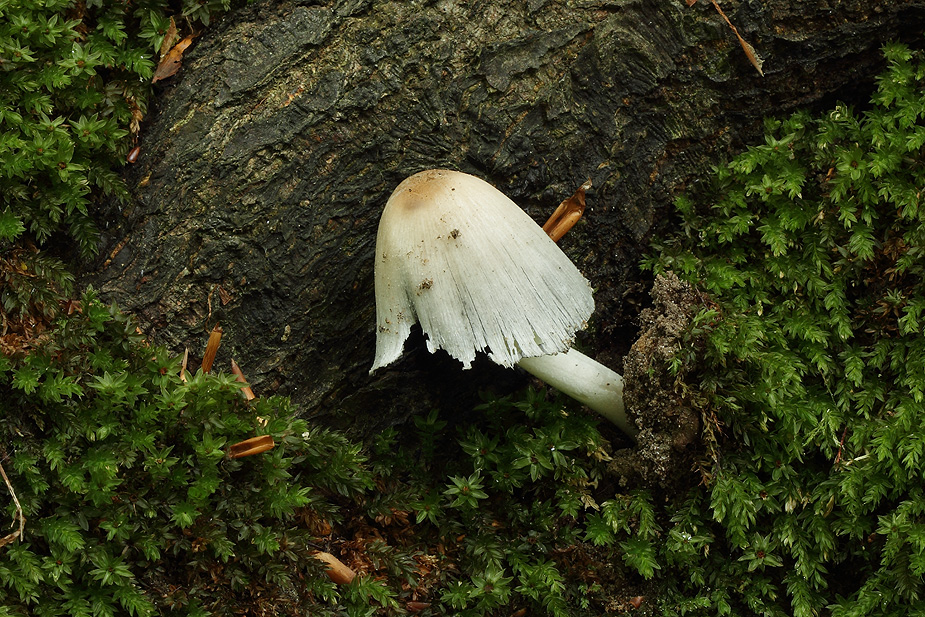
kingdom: Fungi
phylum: Basidiomycota
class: Agaricomycetes
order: Agaricales
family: Psathyrellaceae
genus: Coprinopsis
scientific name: Coprinopsis insignis
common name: stor blækhat
